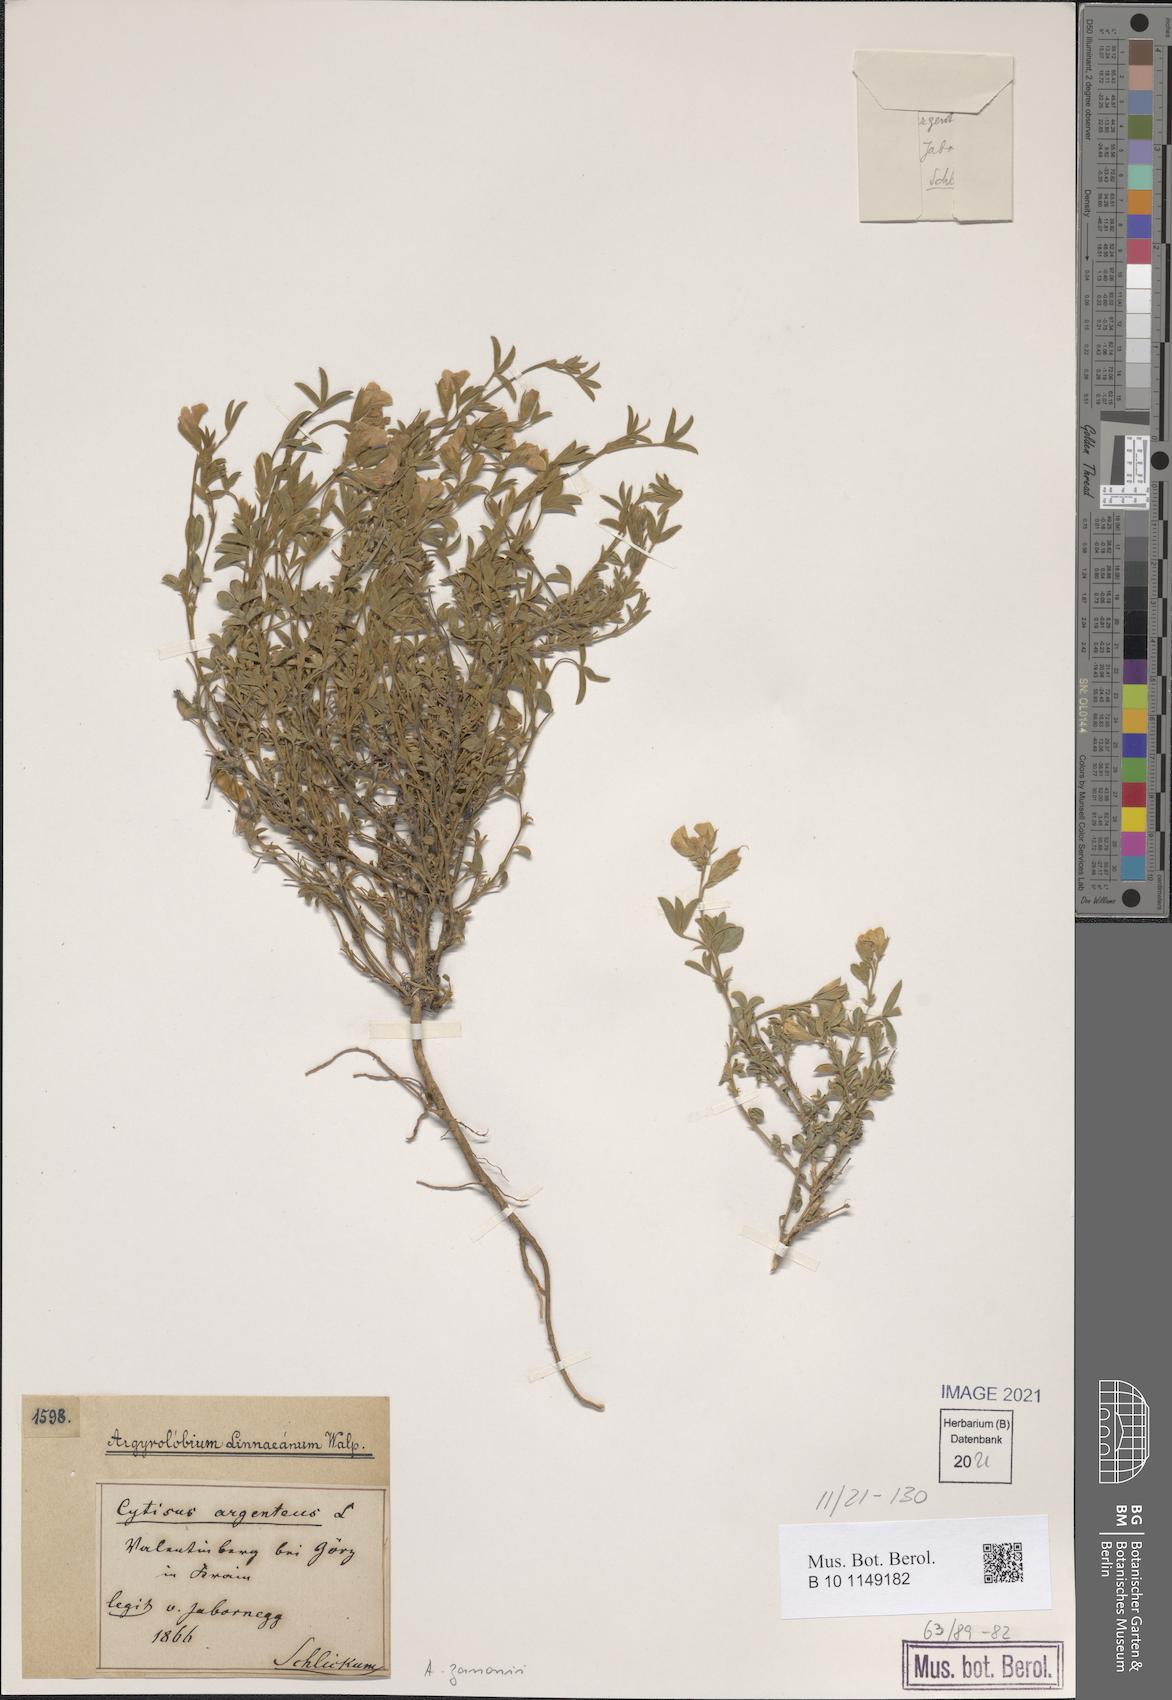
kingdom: Plantae
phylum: Tracheophyta
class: Magnoliopsida
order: Fabales
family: Fabaceae
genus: Argyrolobium
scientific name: Argyrolobium zanonii
